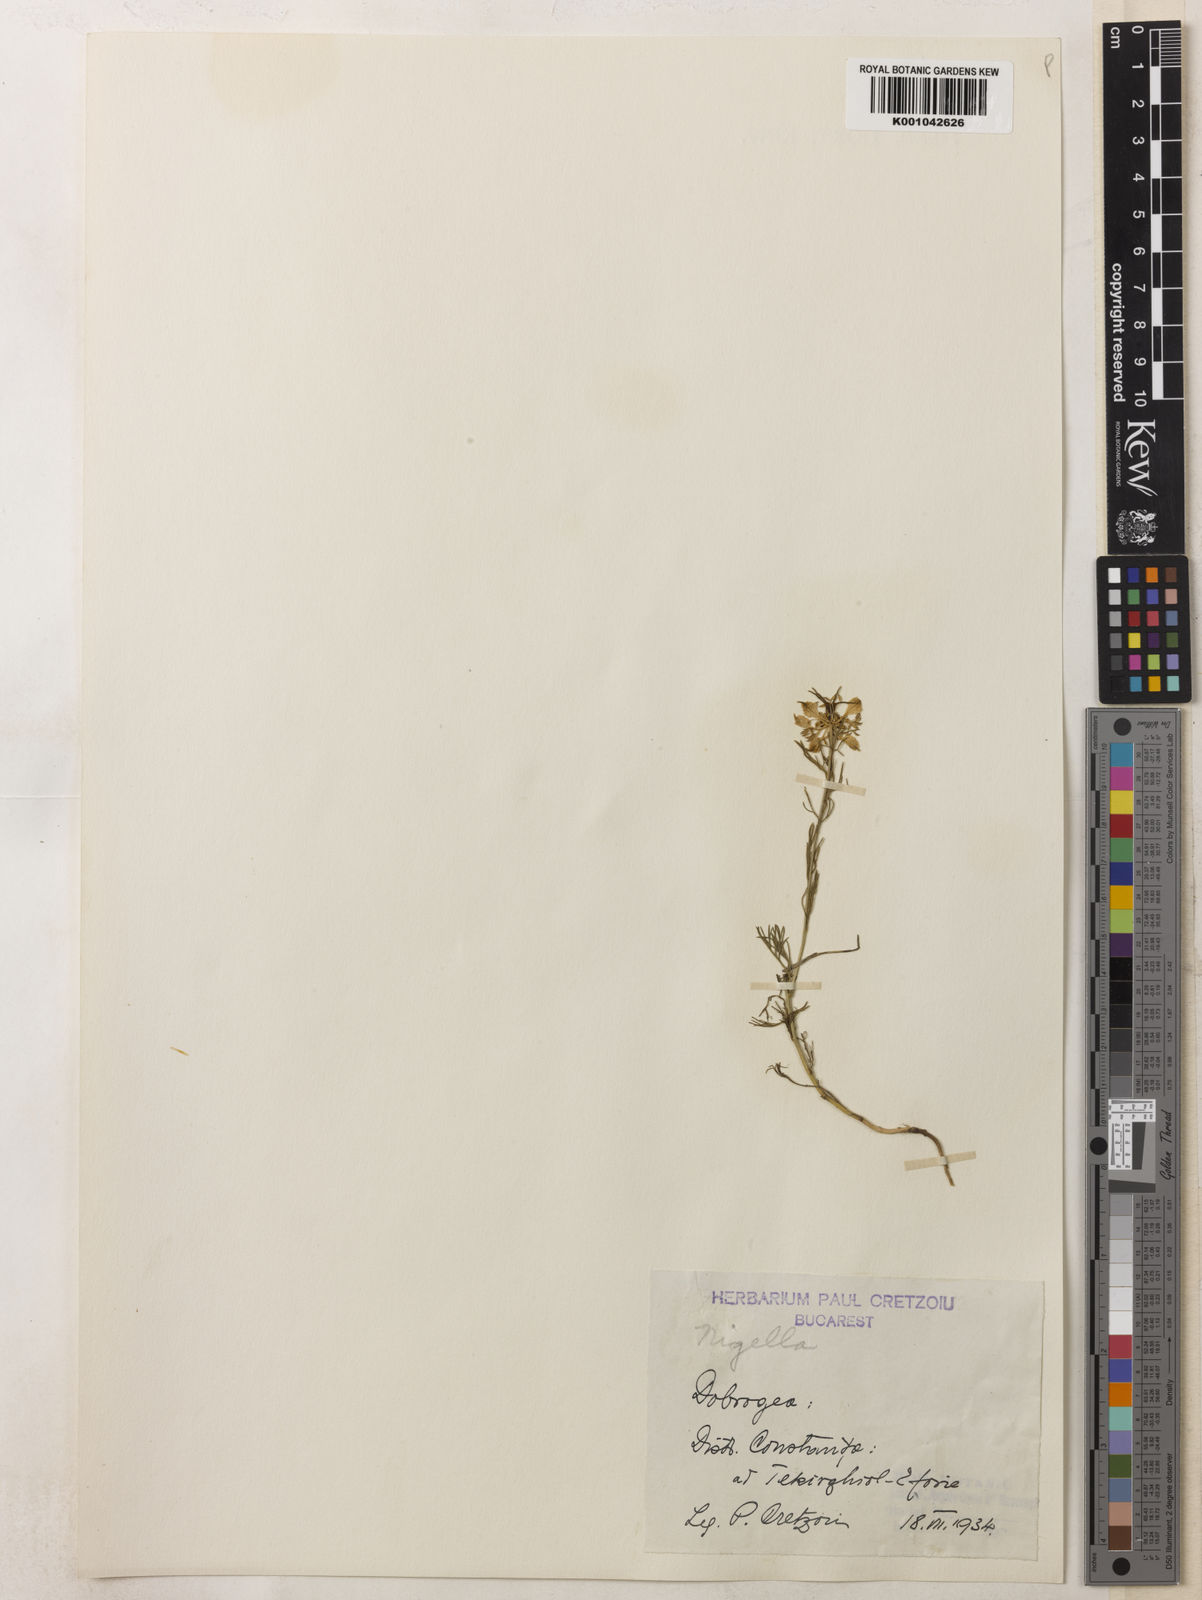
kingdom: Plantae
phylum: Tracheophyta
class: Magnoliopsida
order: Ranunculales
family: Ranunculaceae
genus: Nigella
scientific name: Nigella arvensis
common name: Wild fennel-flower
